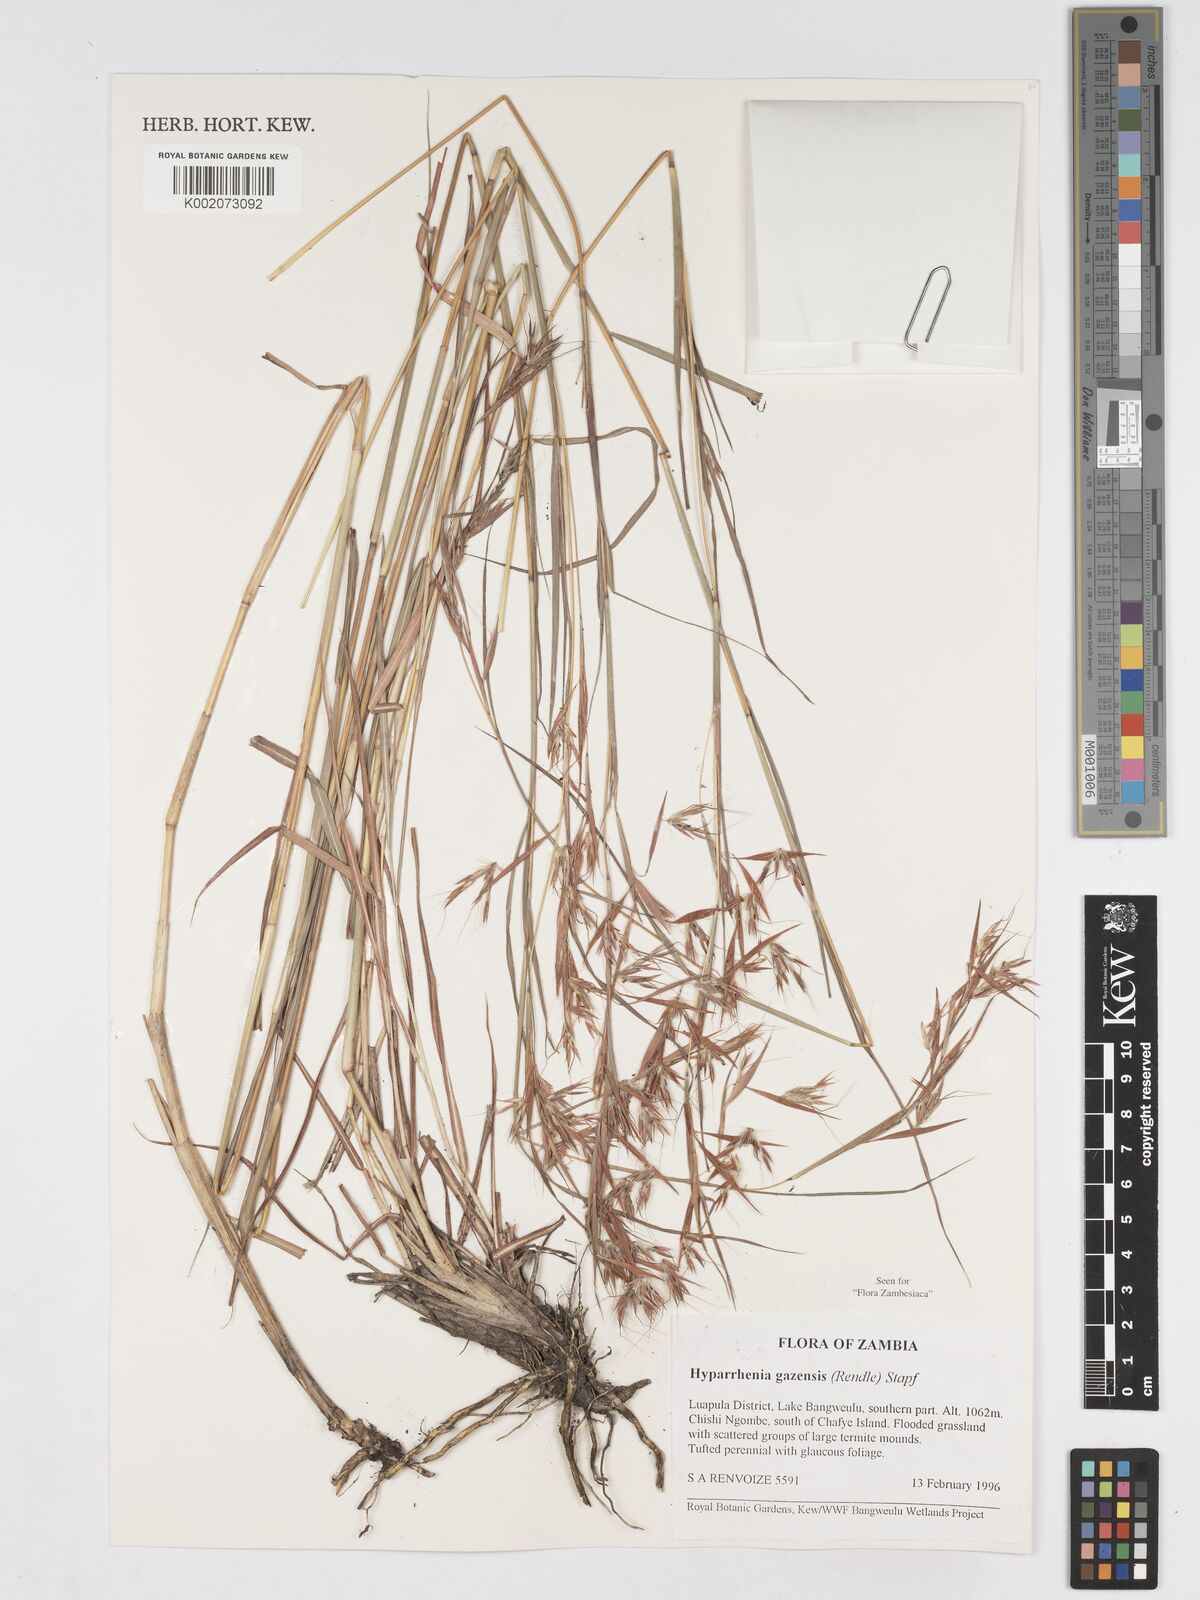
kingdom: Plantae
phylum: Tracheophyta
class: Liliopsida
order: Poales
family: Poaceae
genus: Hyparrhenia
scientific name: Hyparrhenia gazensis
